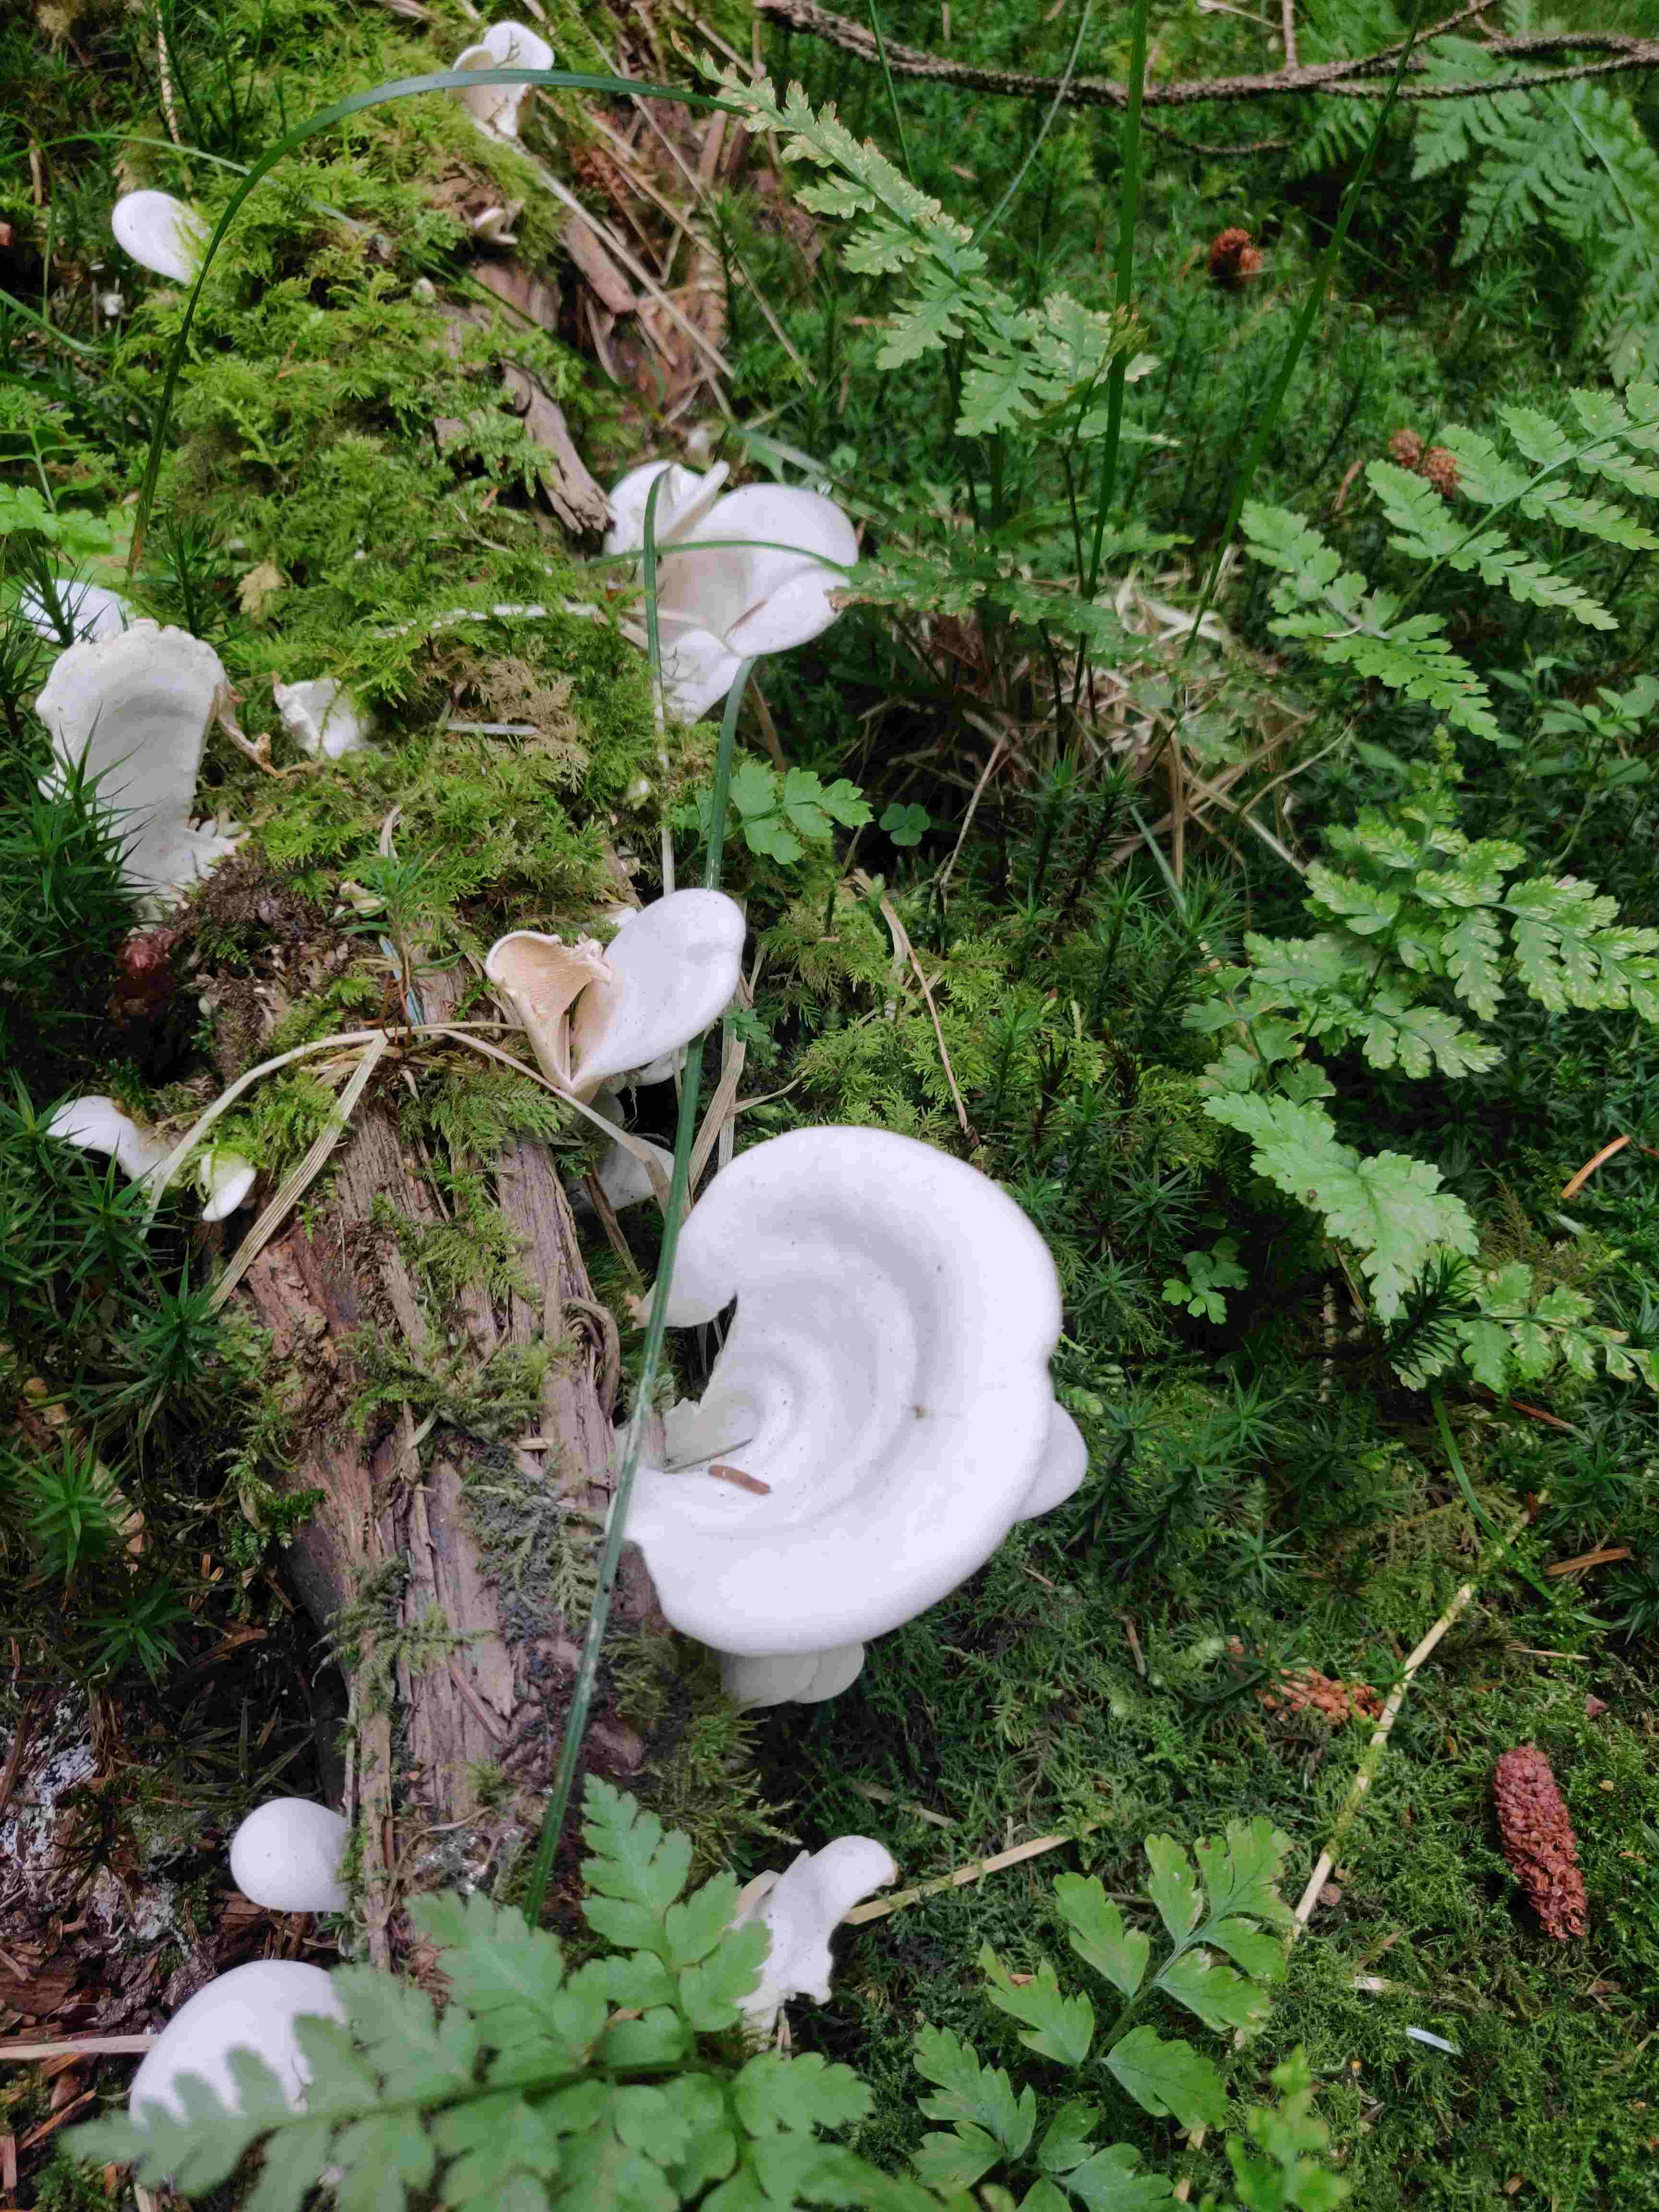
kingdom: Fungi
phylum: Basidiomycota
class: Agaricomycetes
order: Agaricales
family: Marasmiaceae
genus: Pleurocybella
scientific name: Pleurocybella porrigens
